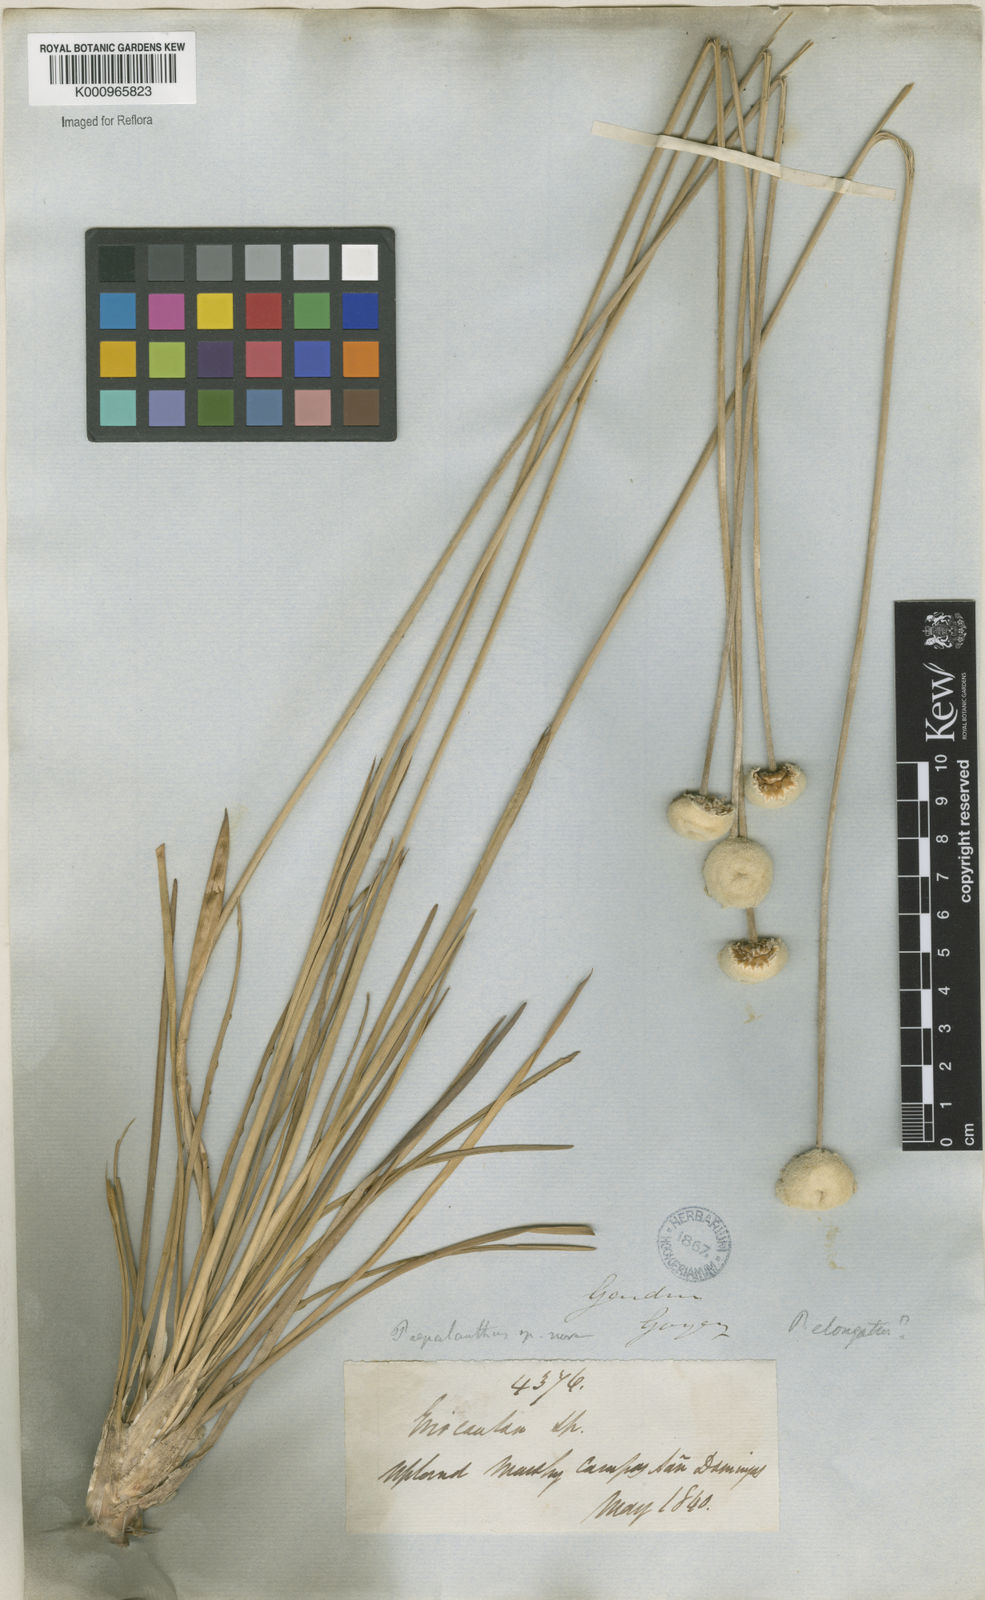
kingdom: Plantae
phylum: Tracheophyta
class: Liliopsida
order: Poales
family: Eriocaulaceae
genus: Paepalanthus
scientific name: Paepalanthus
